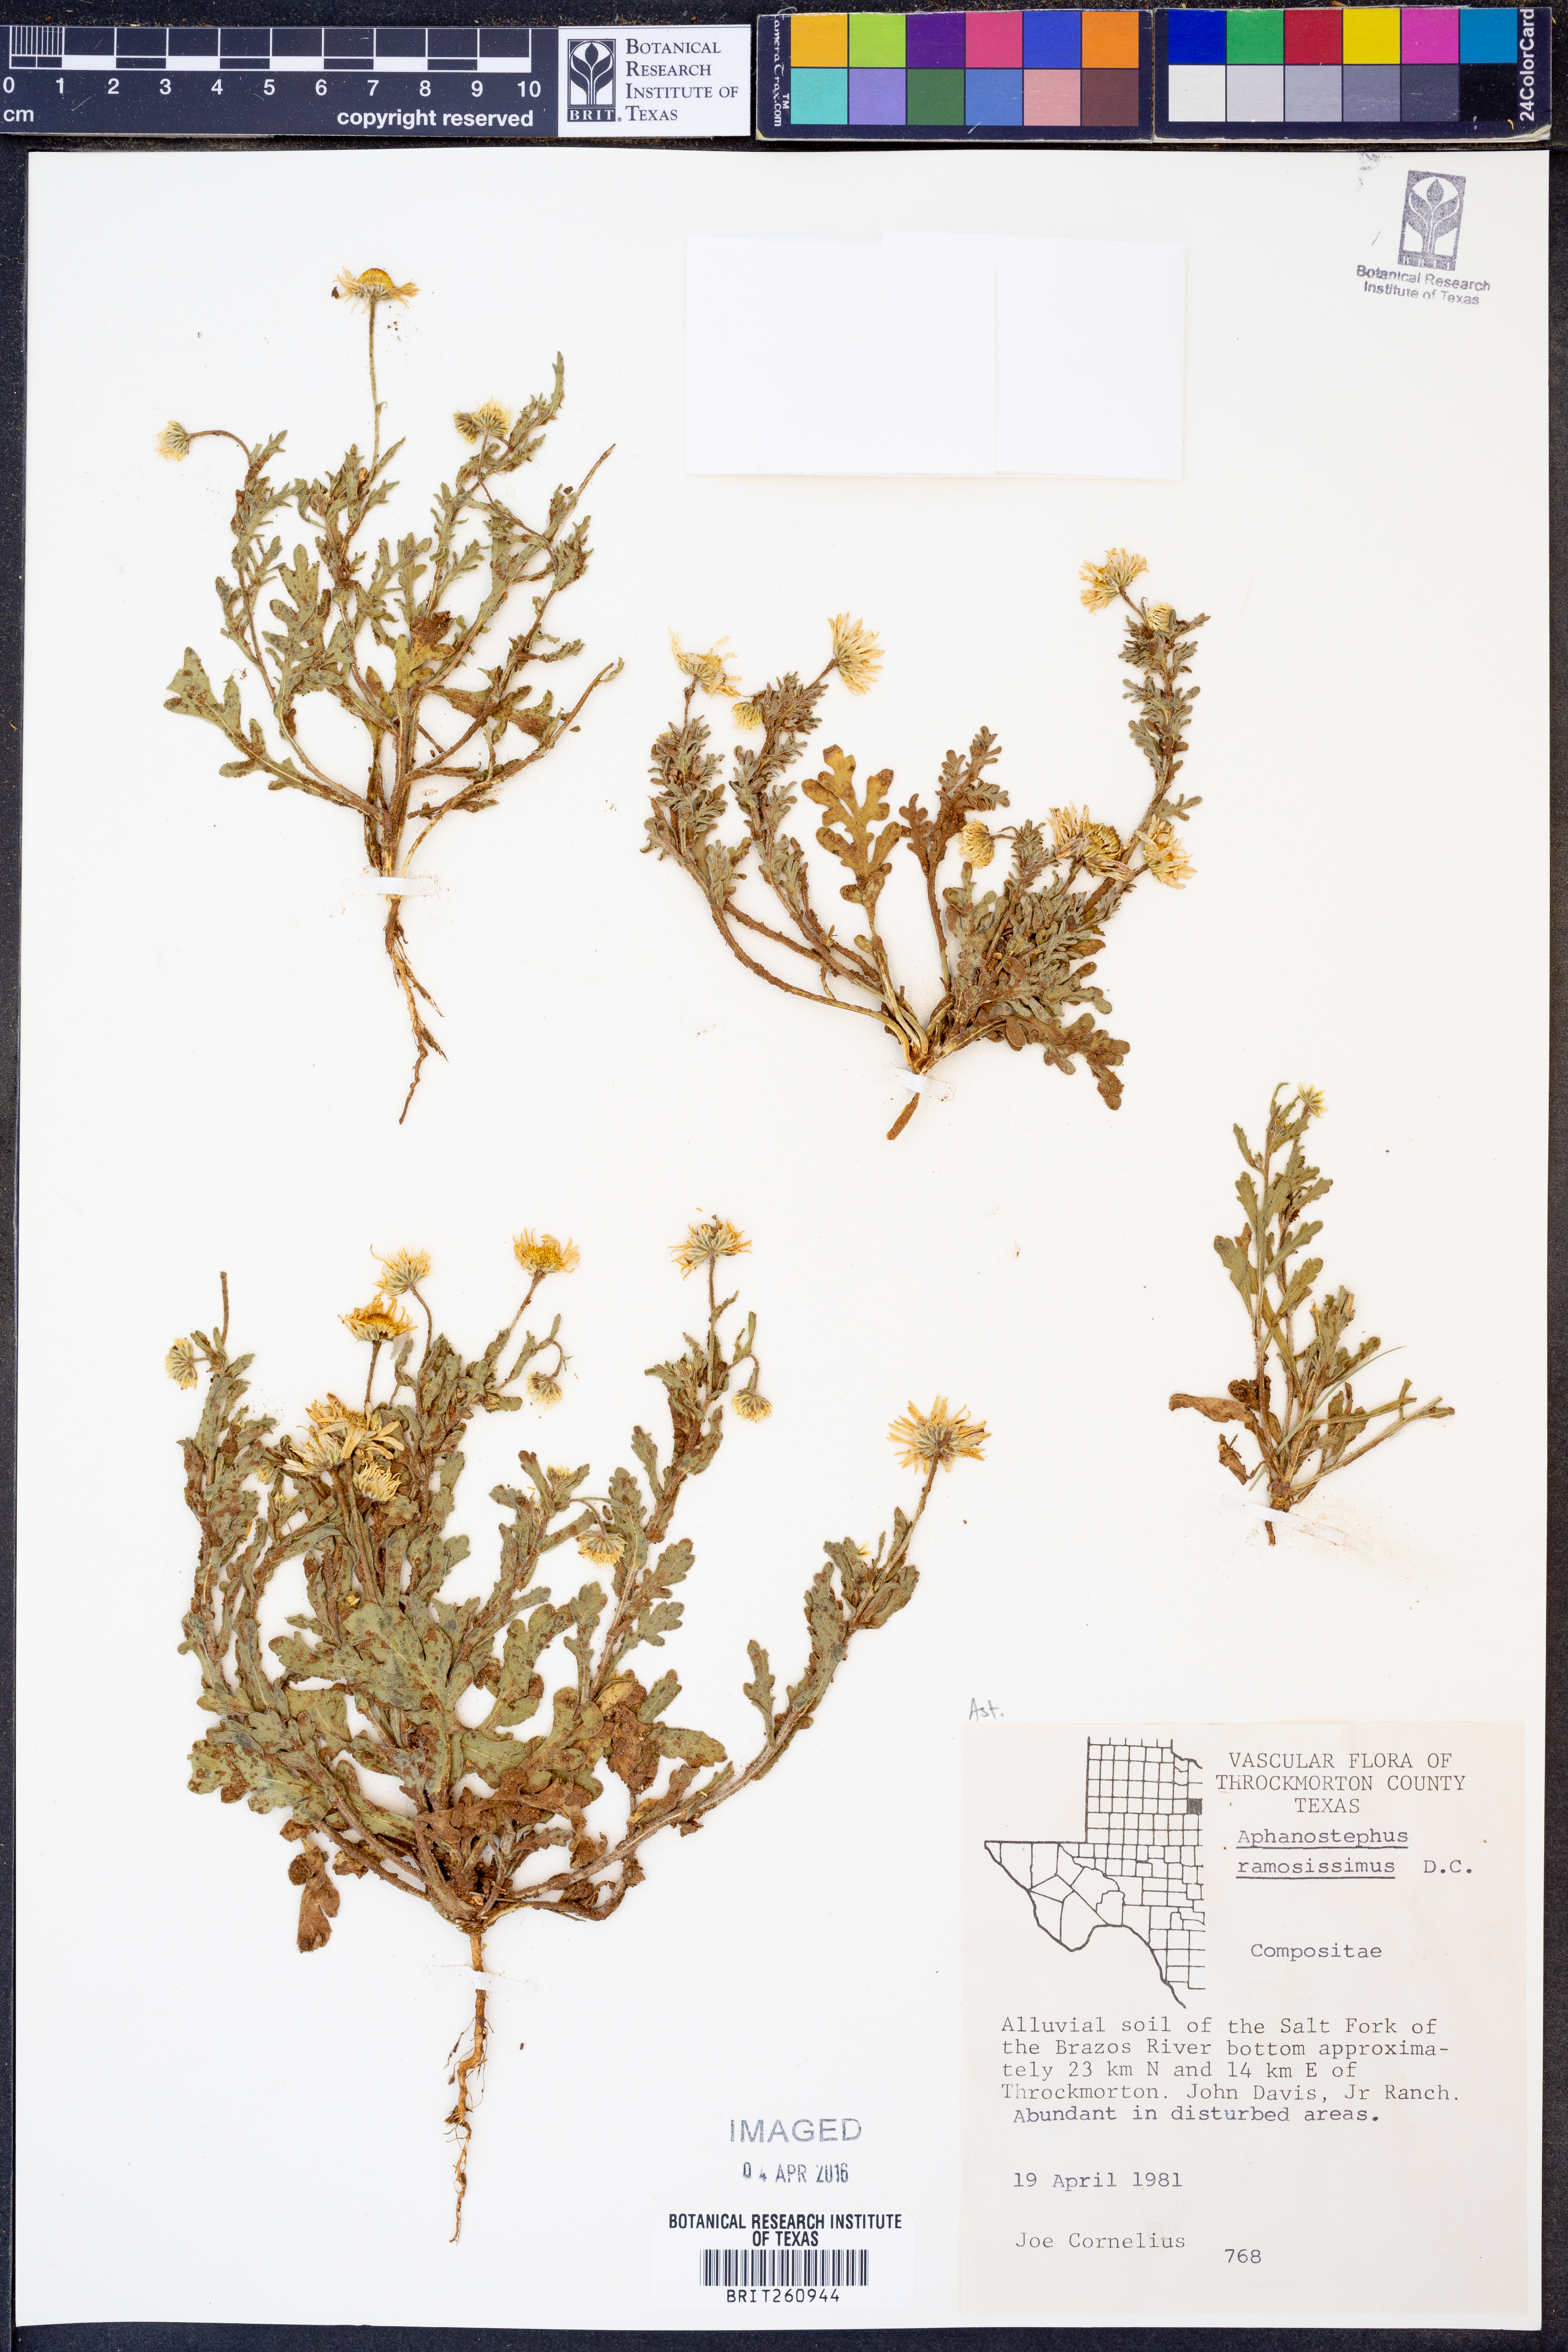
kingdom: Plantae
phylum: Tracheophyta
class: Magnoliopsida
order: Asterales
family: Asteraceae
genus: Aphanostephus
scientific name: Aphanostephus ramosissimus
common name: Plains lazy daisy
